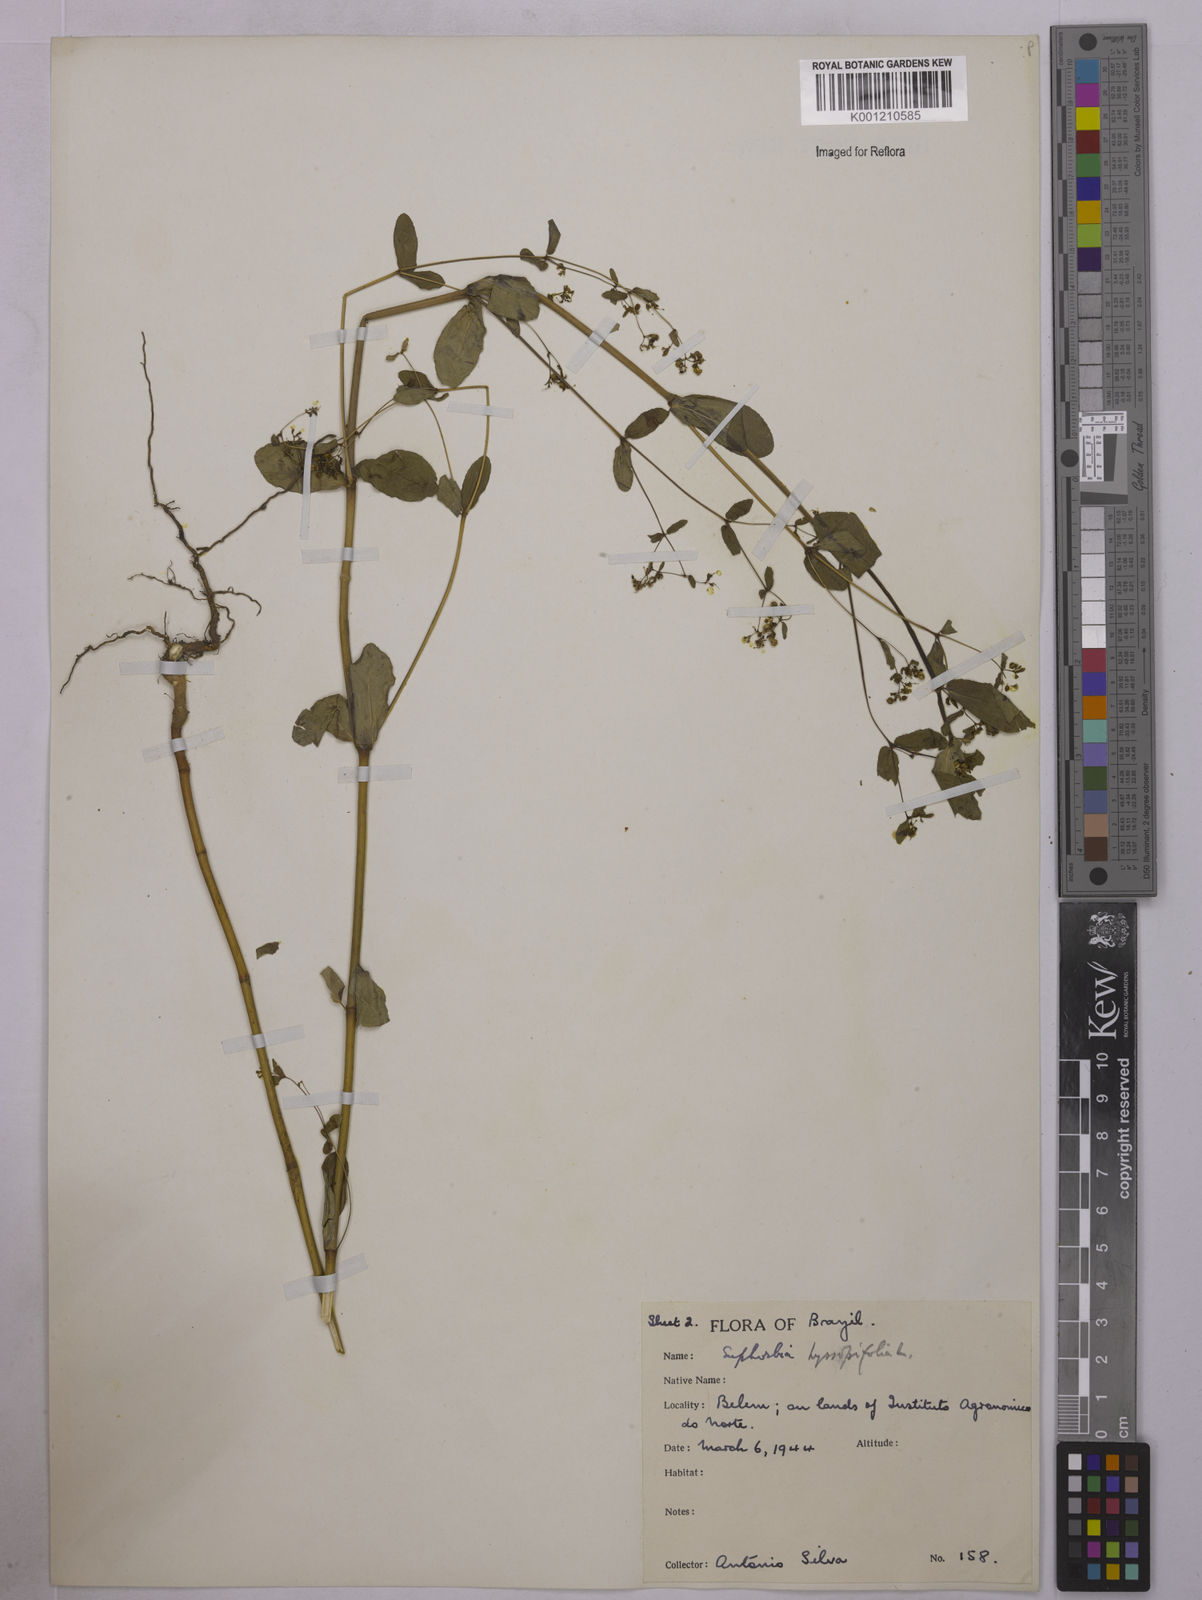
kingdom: Plantae
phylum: Tracheophyta
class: Magnoliopsida
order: Malpighiales
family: Euphorbiaceae
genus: Euphorbia
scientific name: Euphorbia hyssopifolia
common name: Hyssopleaf sandmat
